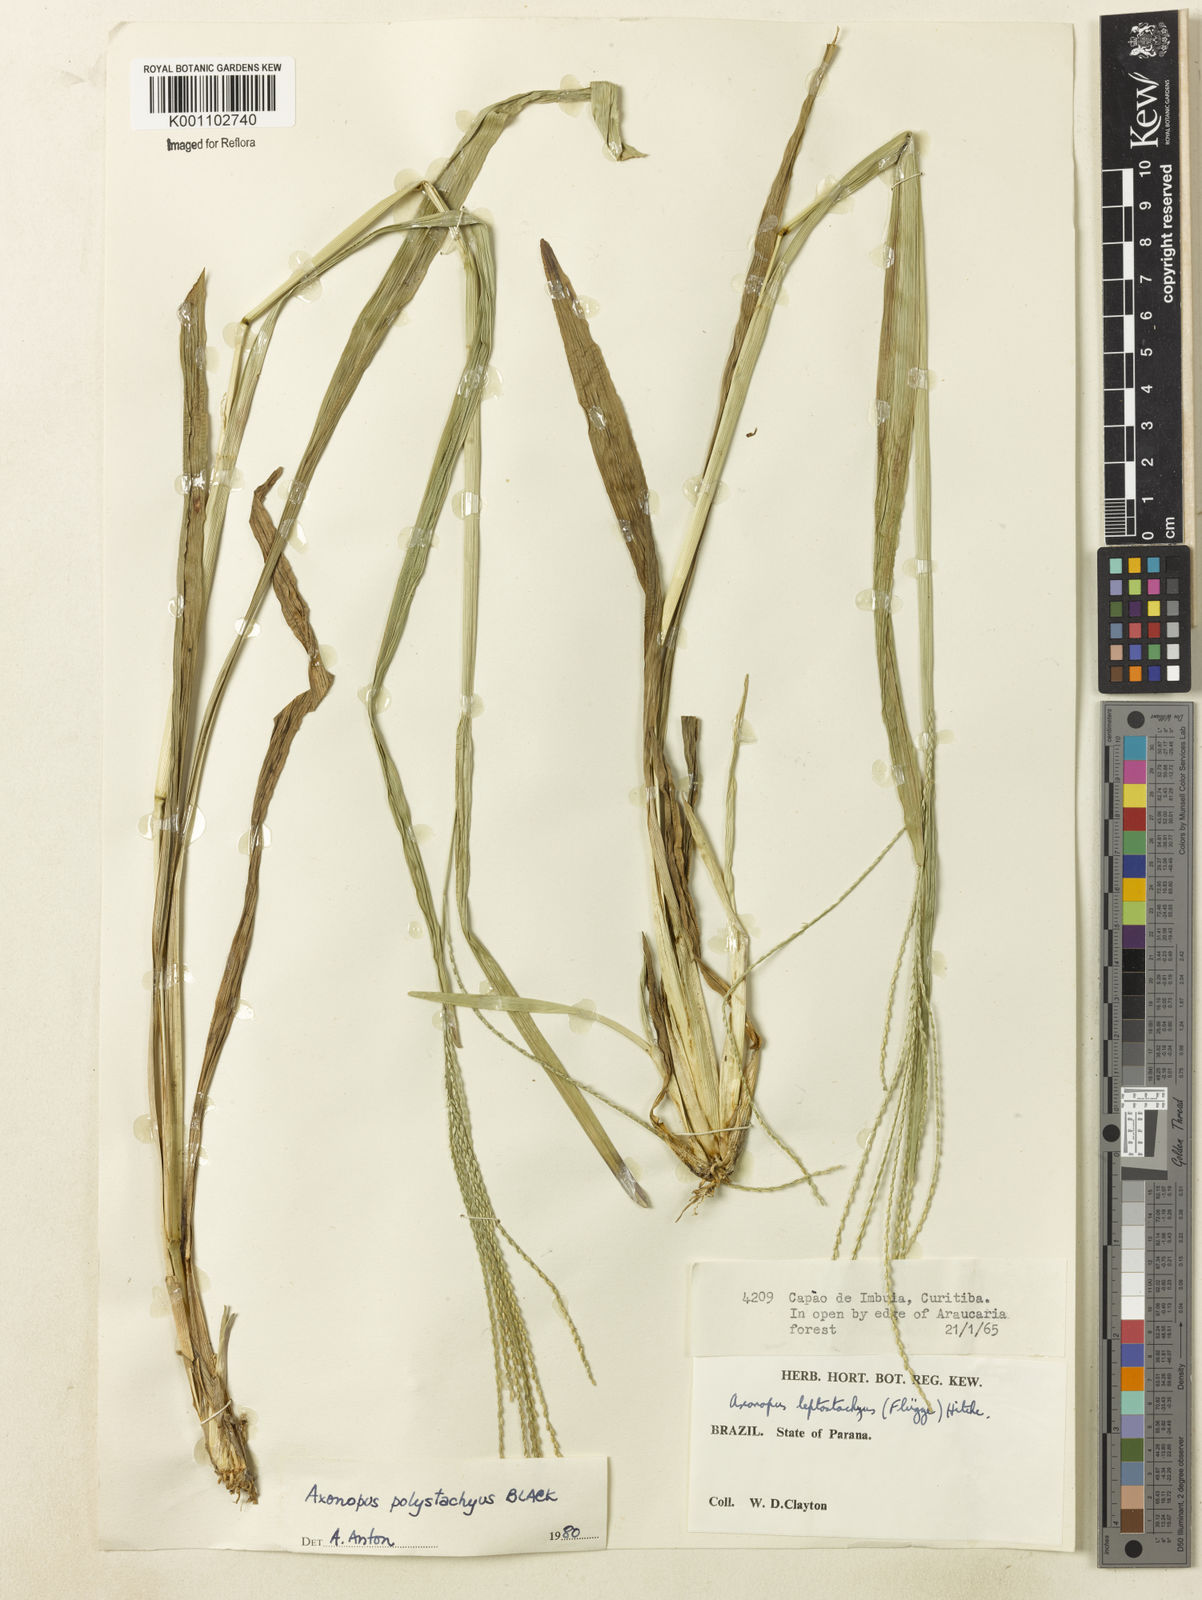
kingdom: Plantae
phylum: Tracheophyta
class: Liliopsida
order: Poales
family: Poaceae
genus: Axonopus
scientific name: Axonopus polystachyus
